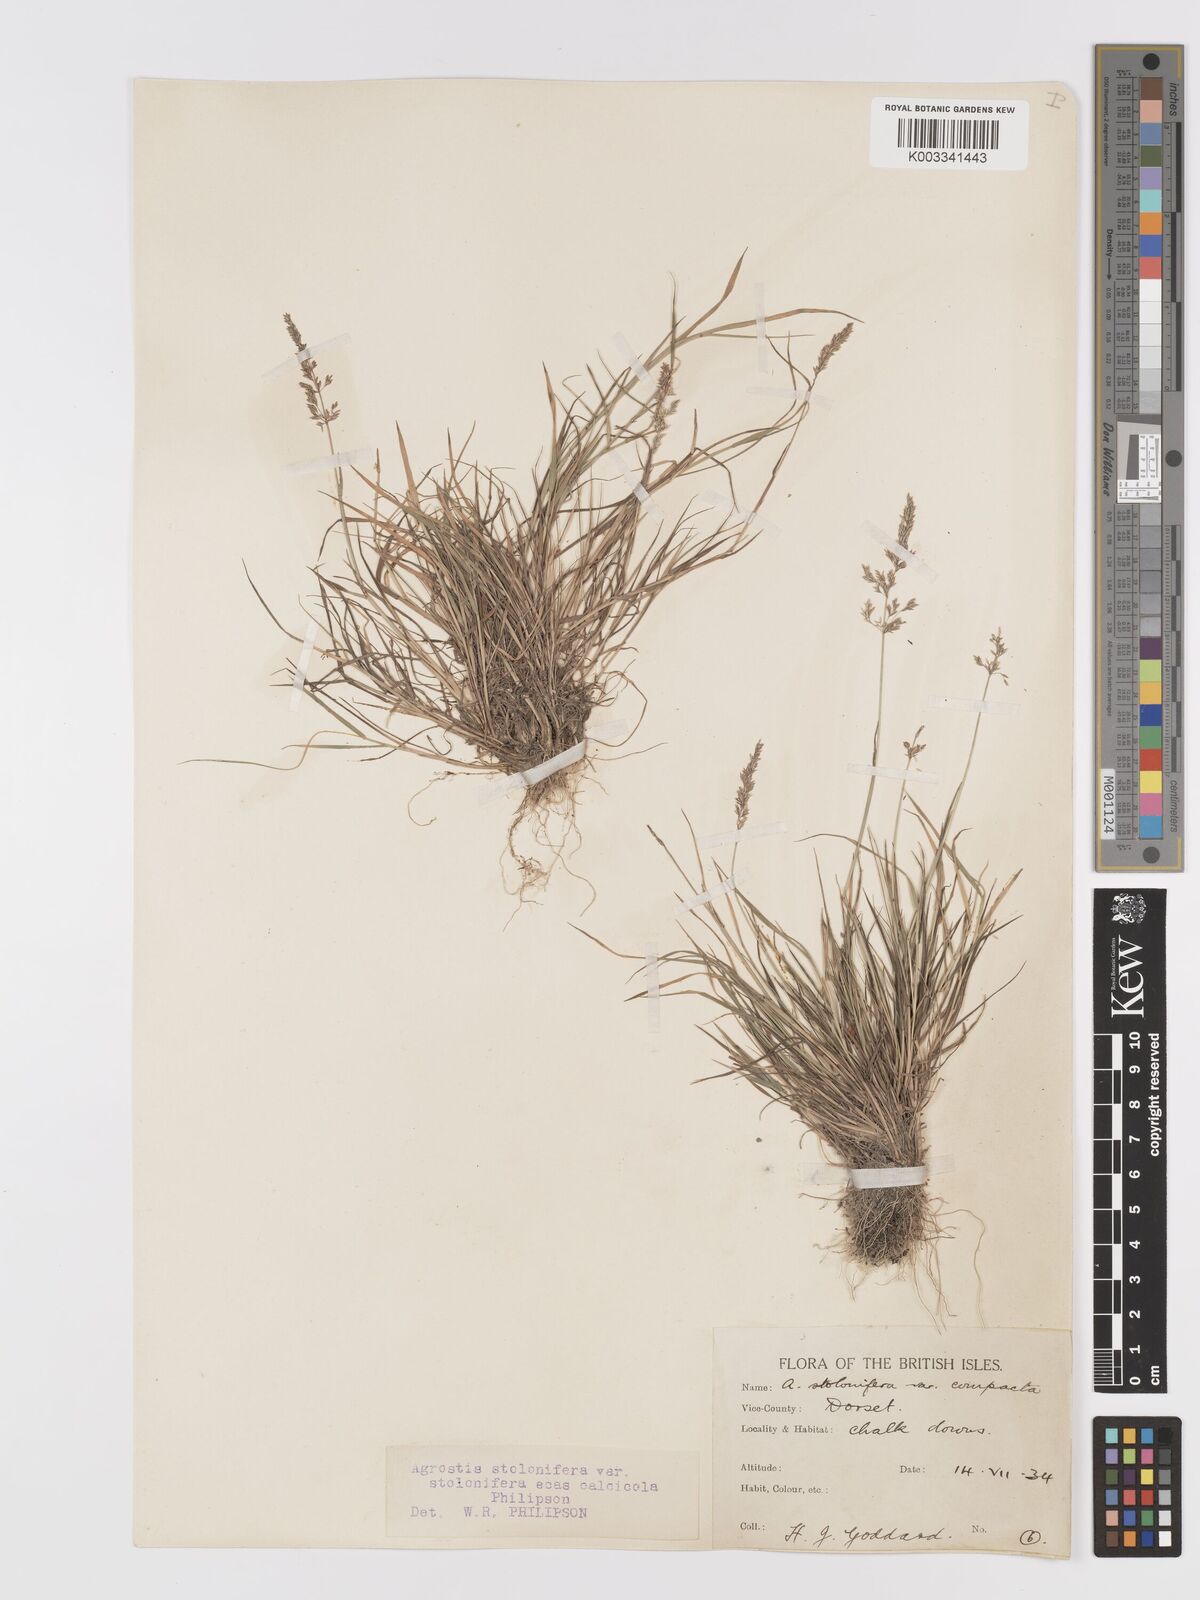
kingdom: Plantae
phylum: Tracheophyta
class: Liliopsida
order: Poales
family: Poaceae
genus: Agrostis
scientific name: Agrostis stolonifera
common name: Creeping bentgrass
